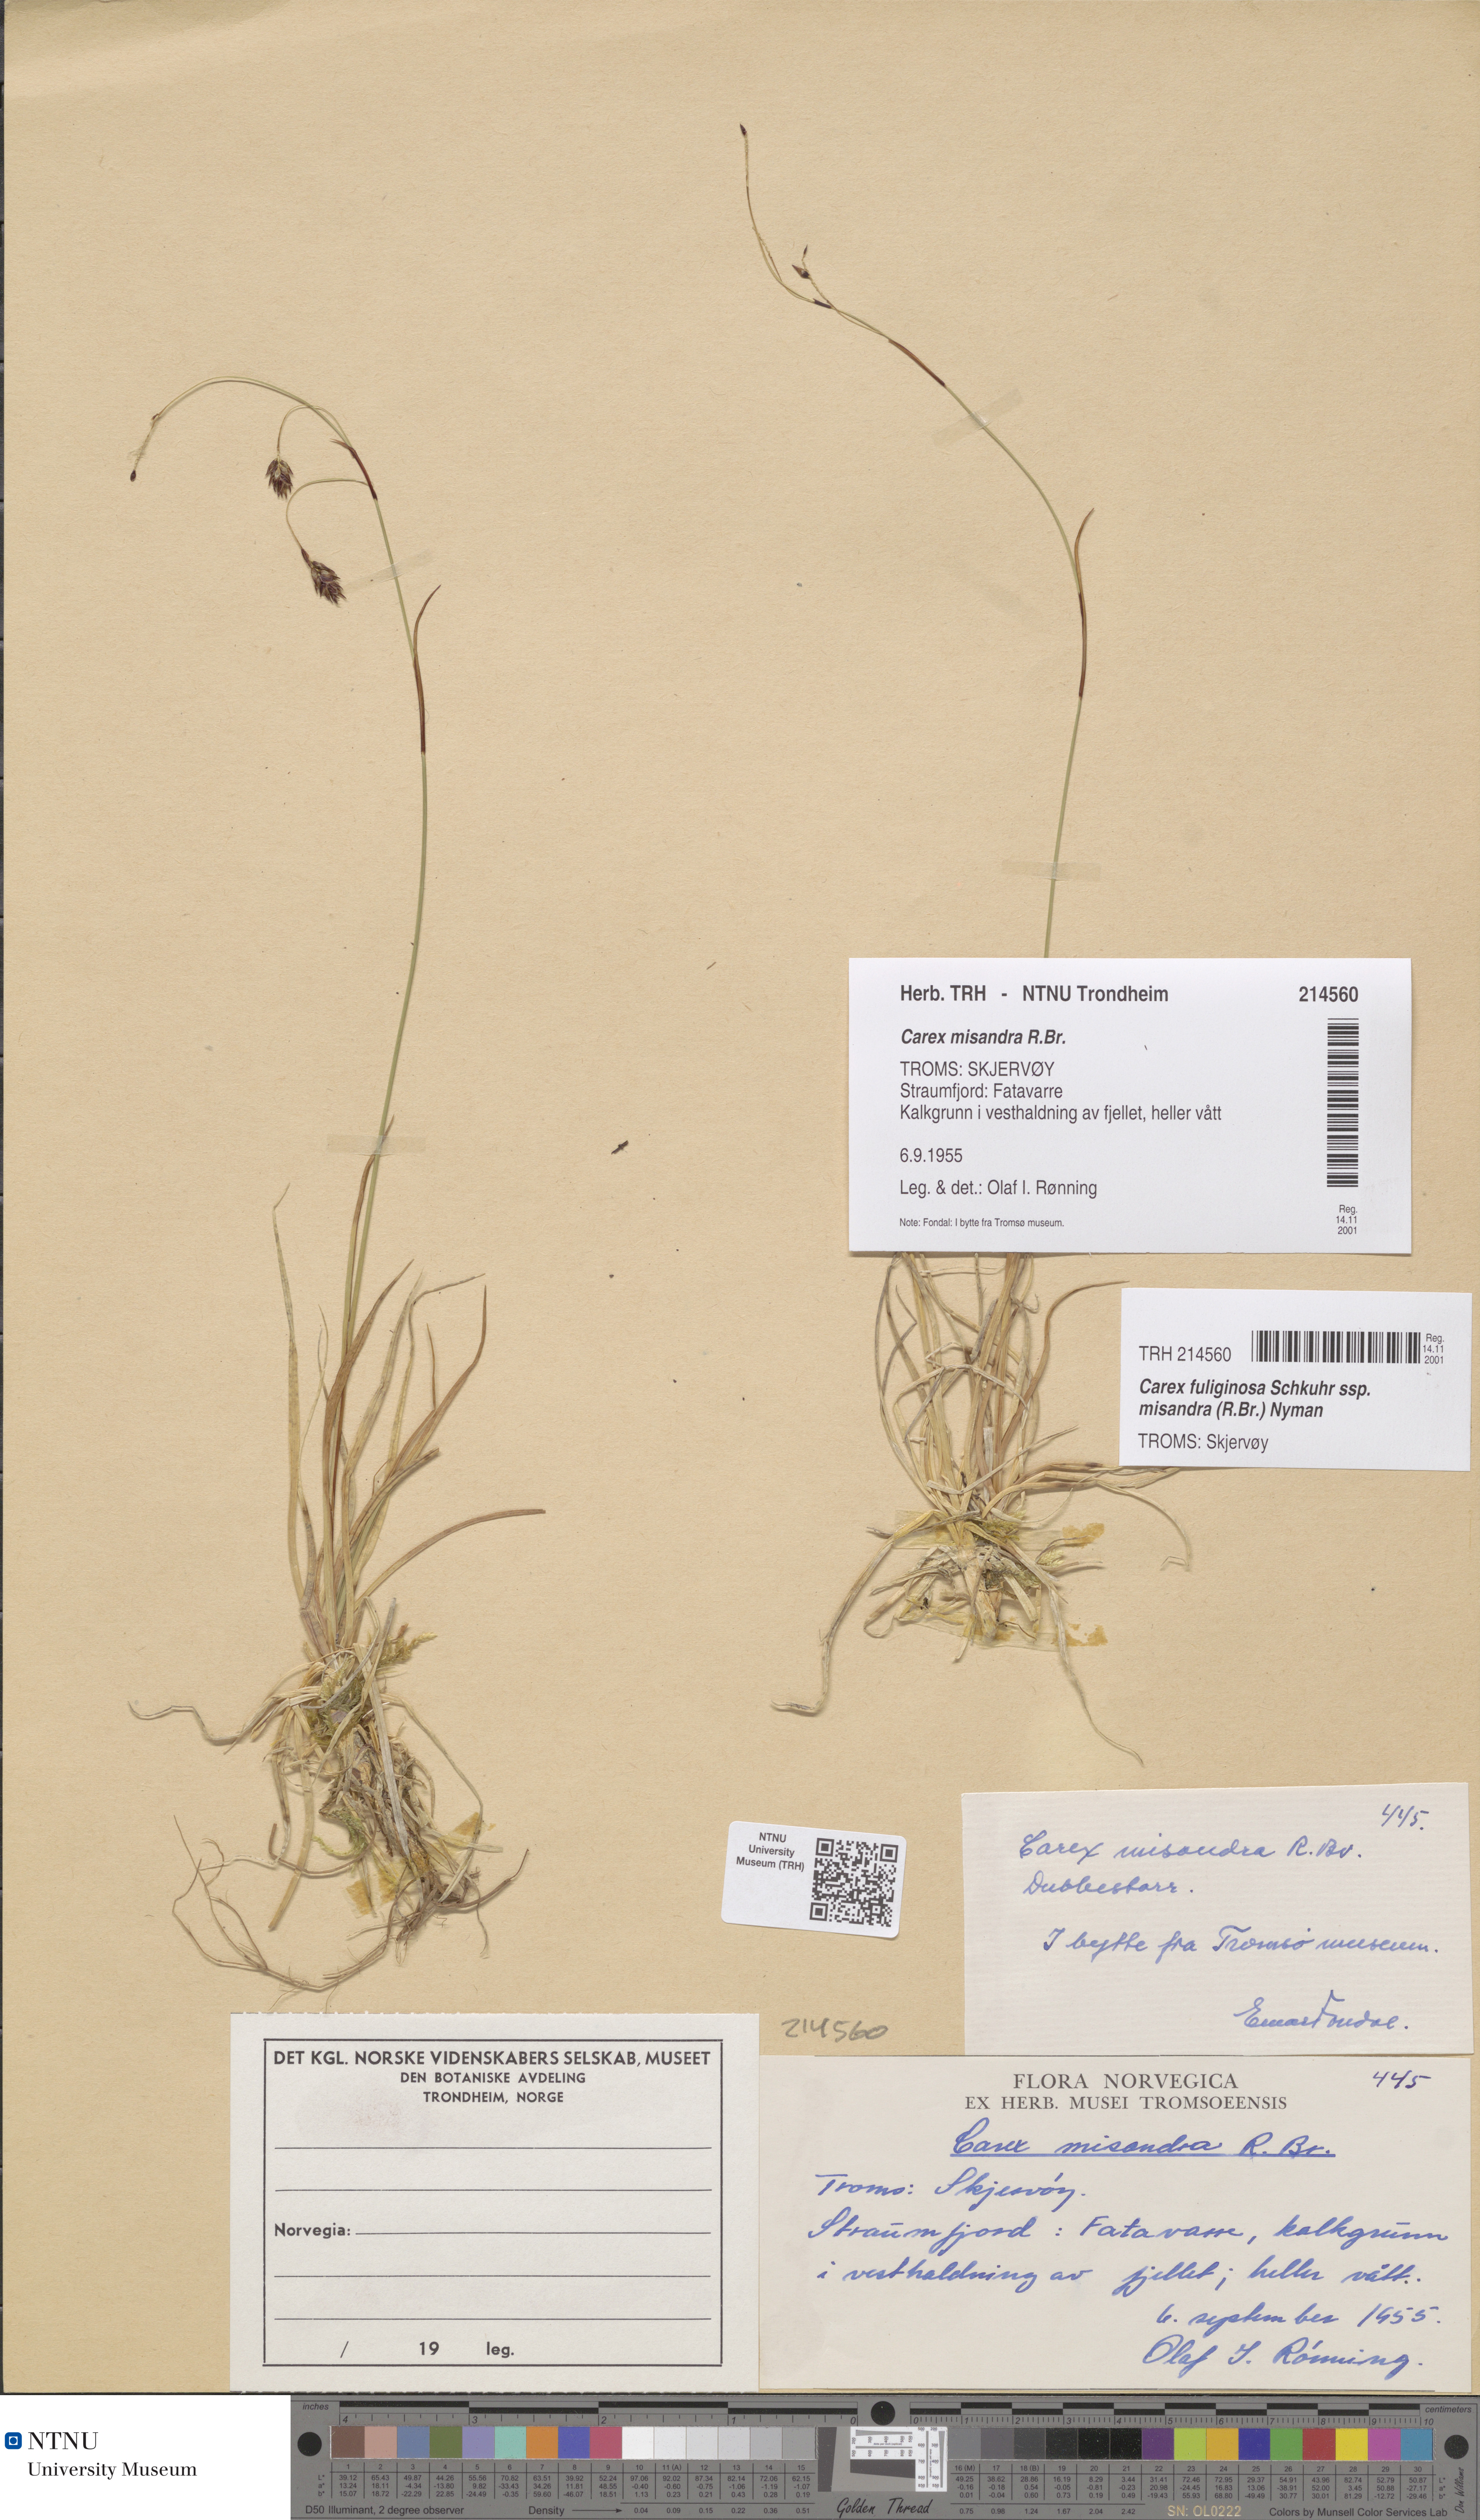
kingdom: Plantae
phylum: Tracheophyta
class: Liliopsida
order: Poales
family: Cyperaceae
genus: Carex
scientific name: Carex fuliginosa
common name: Few-flowered sedge
